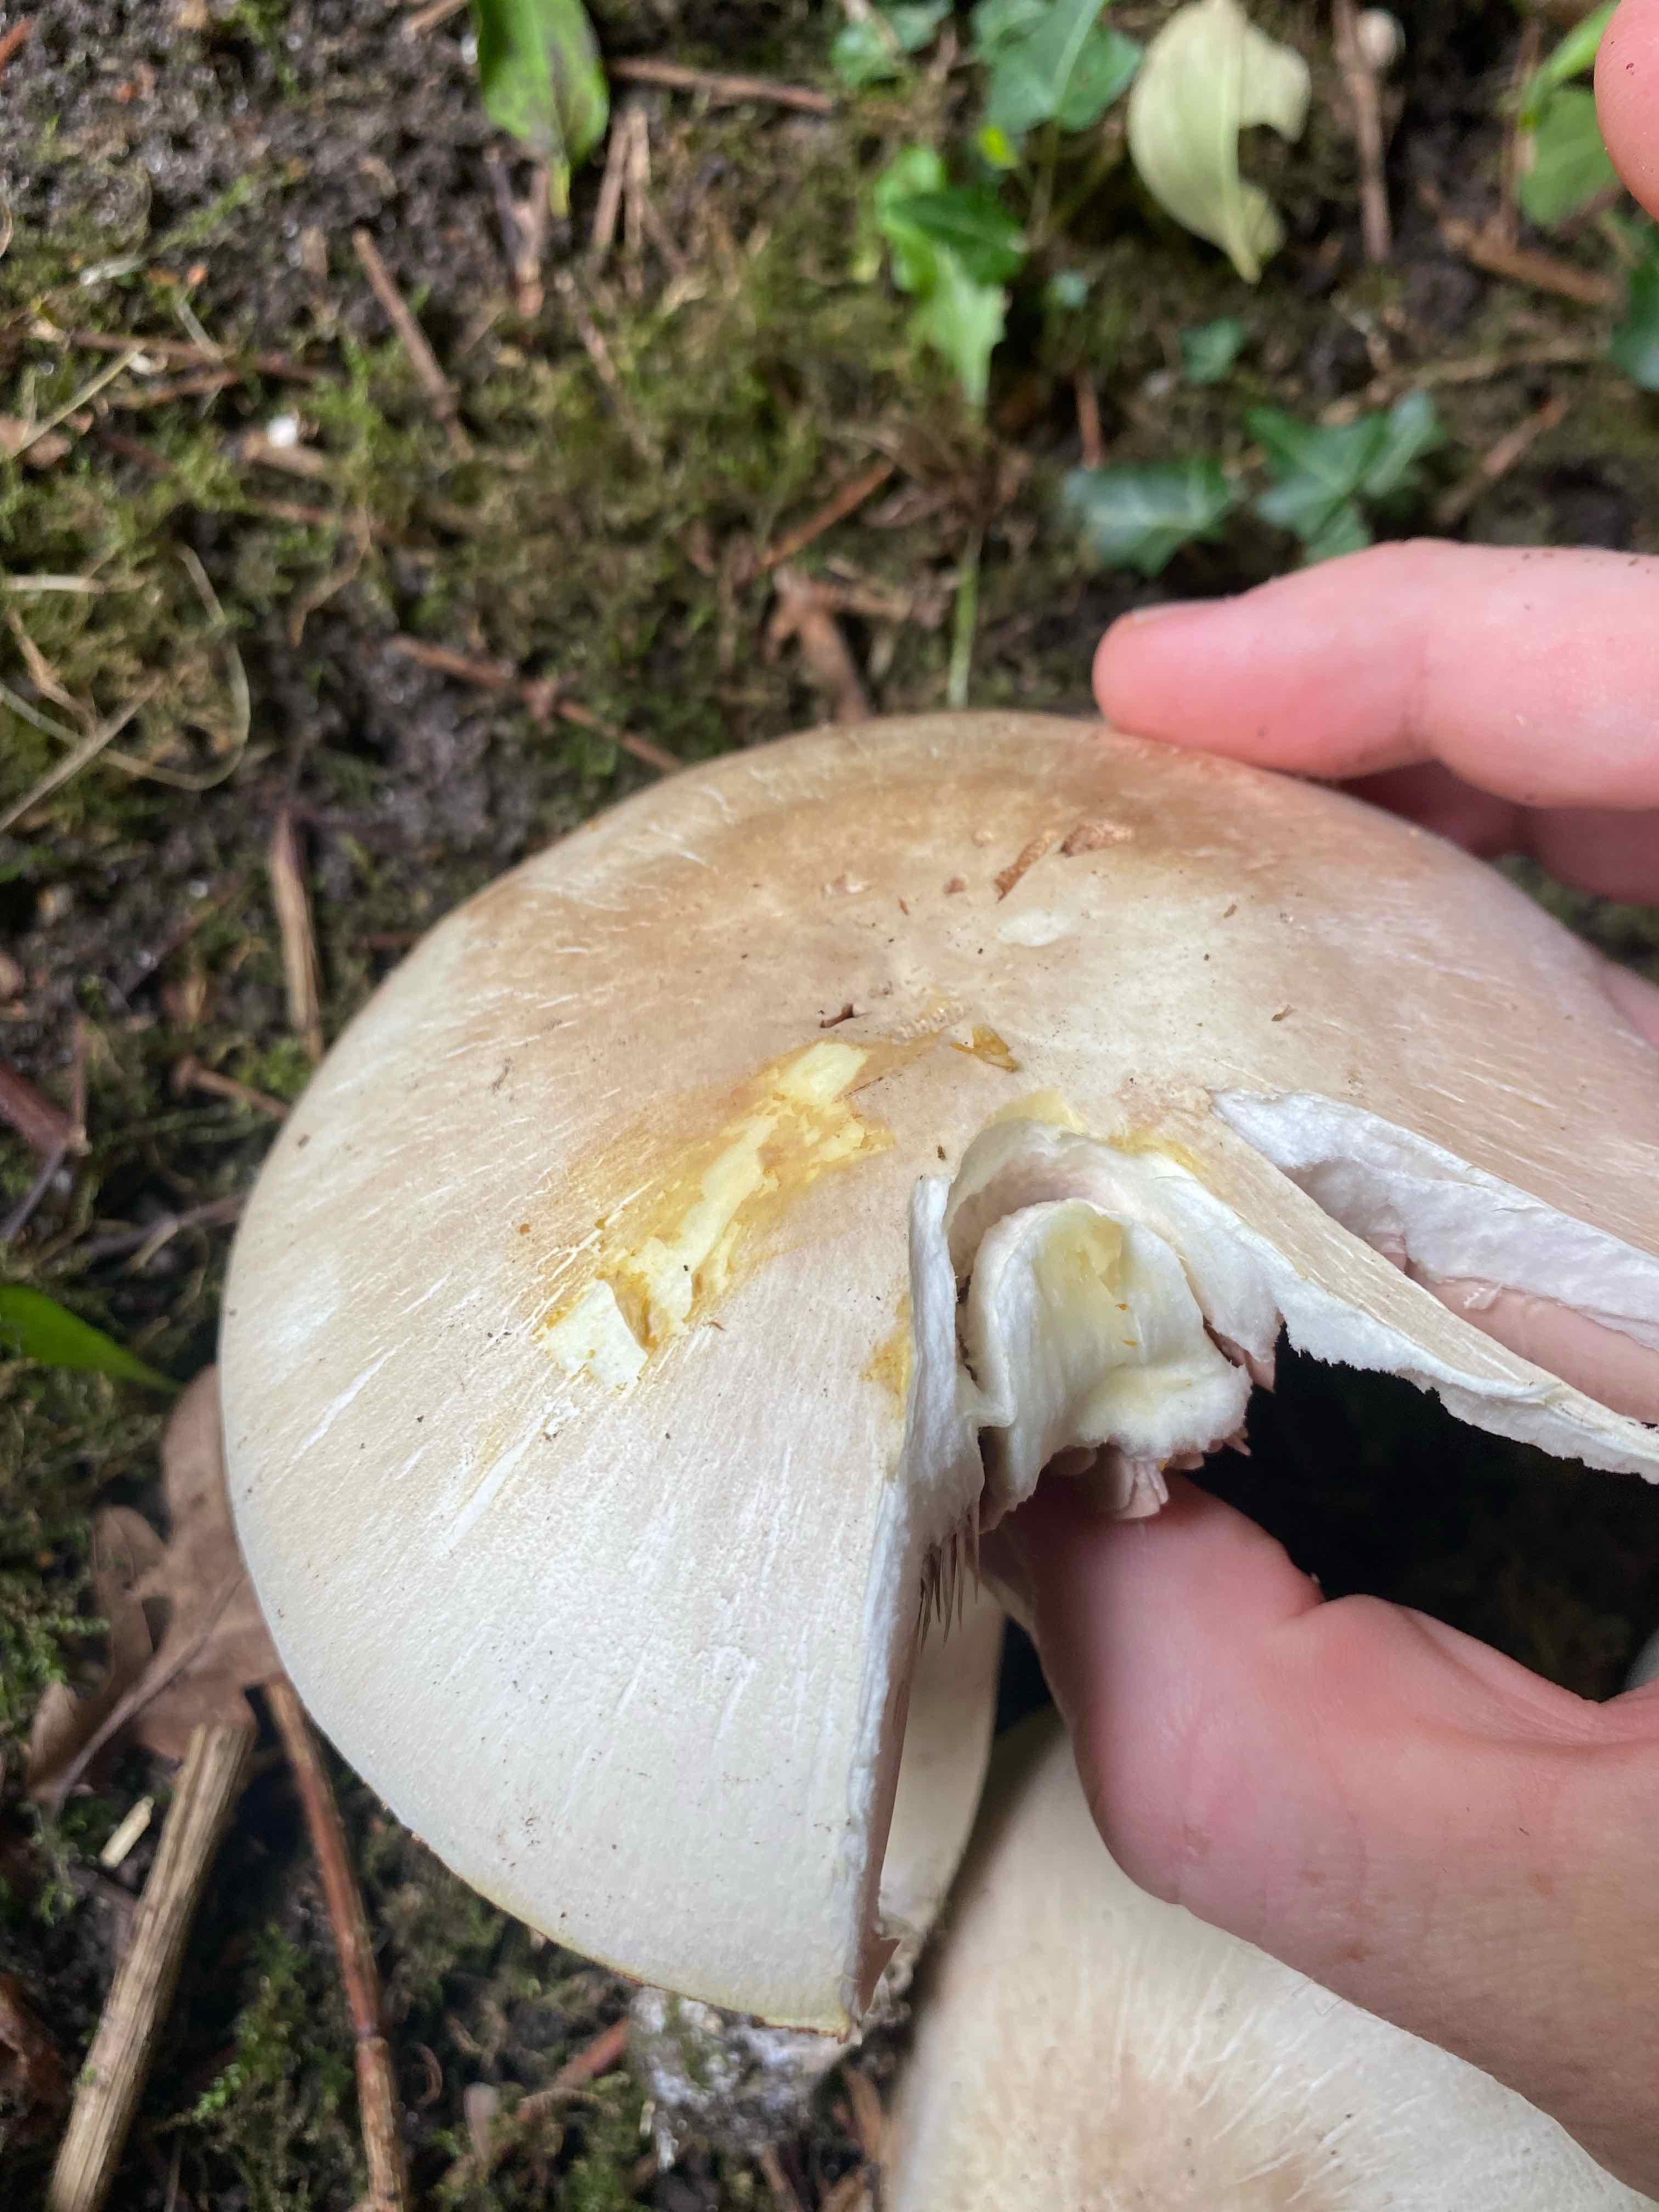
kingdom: Fungi
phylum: Basidiomycota
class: Agaricomycetes
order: Agaricales
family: Agaricaceae
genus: Agaricus
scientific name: Agaricus xanthodermus
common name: karbol-champignon
